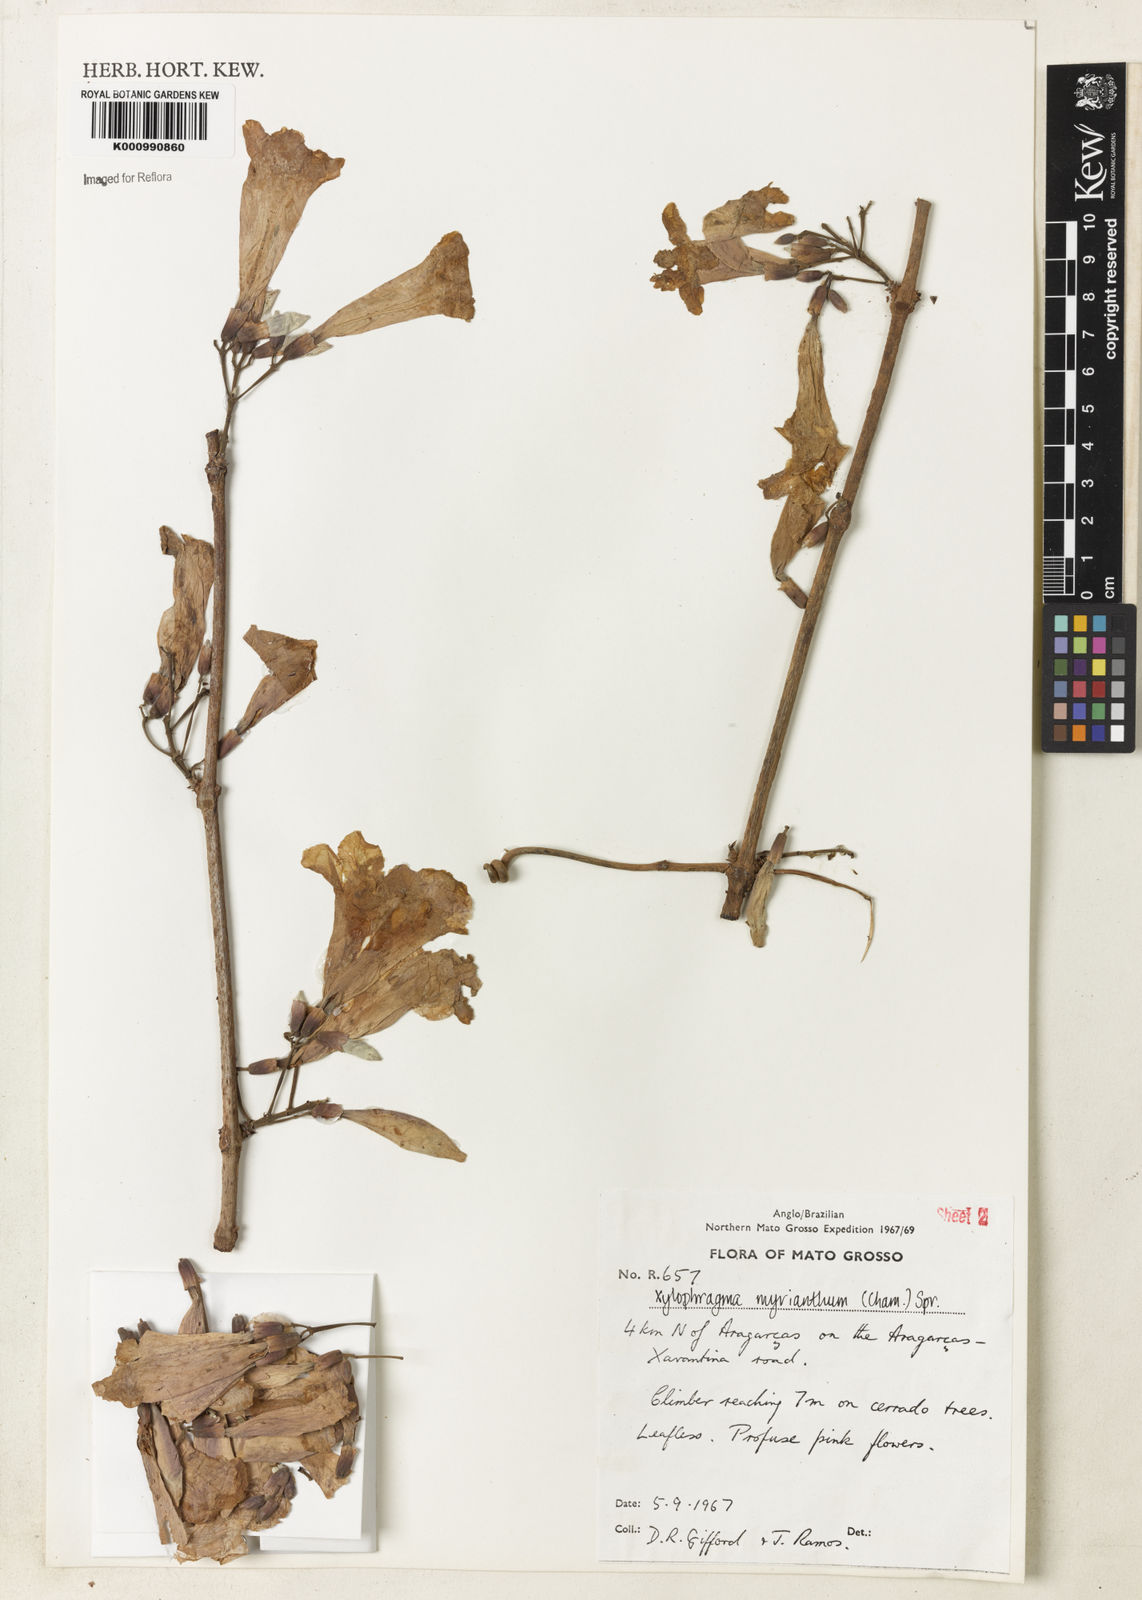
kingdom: Plantae
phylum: Tracheophyta
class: Magnoliopsida
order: Lamiales
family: Bignoniaceae
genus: Xylophragma
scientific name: Xylophragma myrianthum
